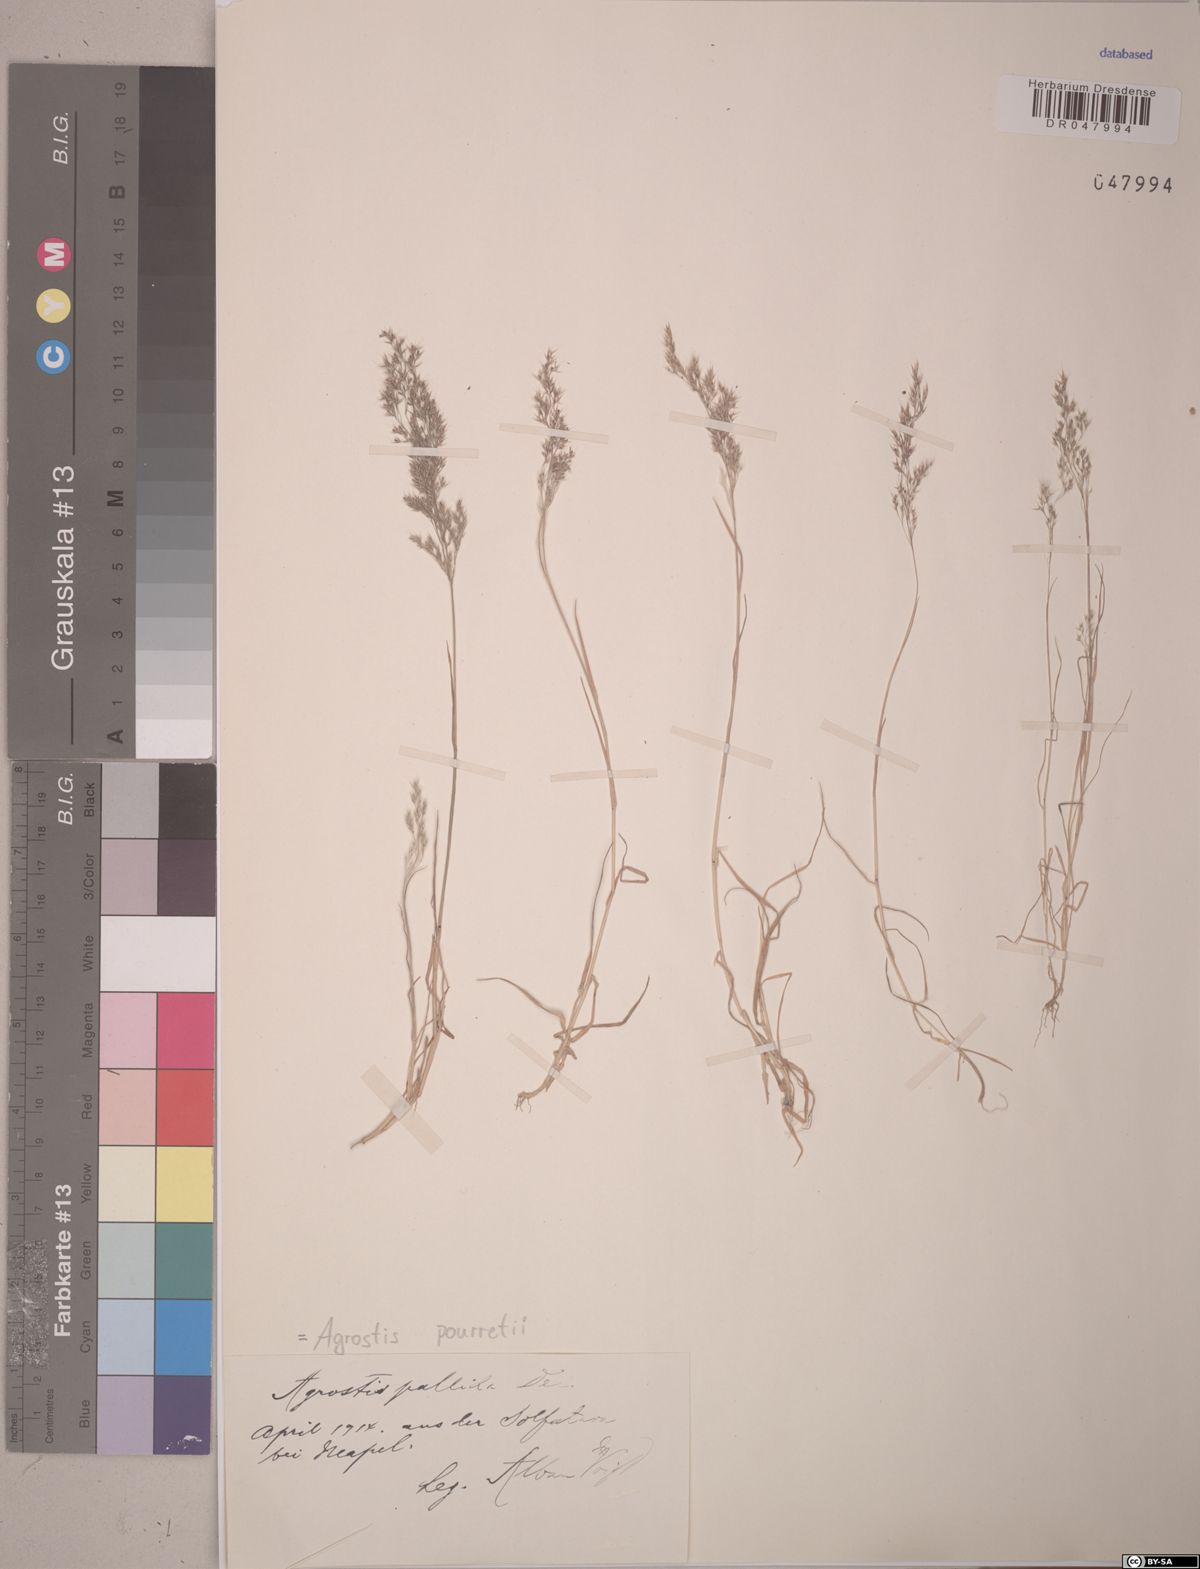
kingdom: Plantae
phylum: Tracheophyta
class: Liliopsida
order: Poales
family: Poaceae
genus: Agrostis
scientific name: Agrostis pourretii
